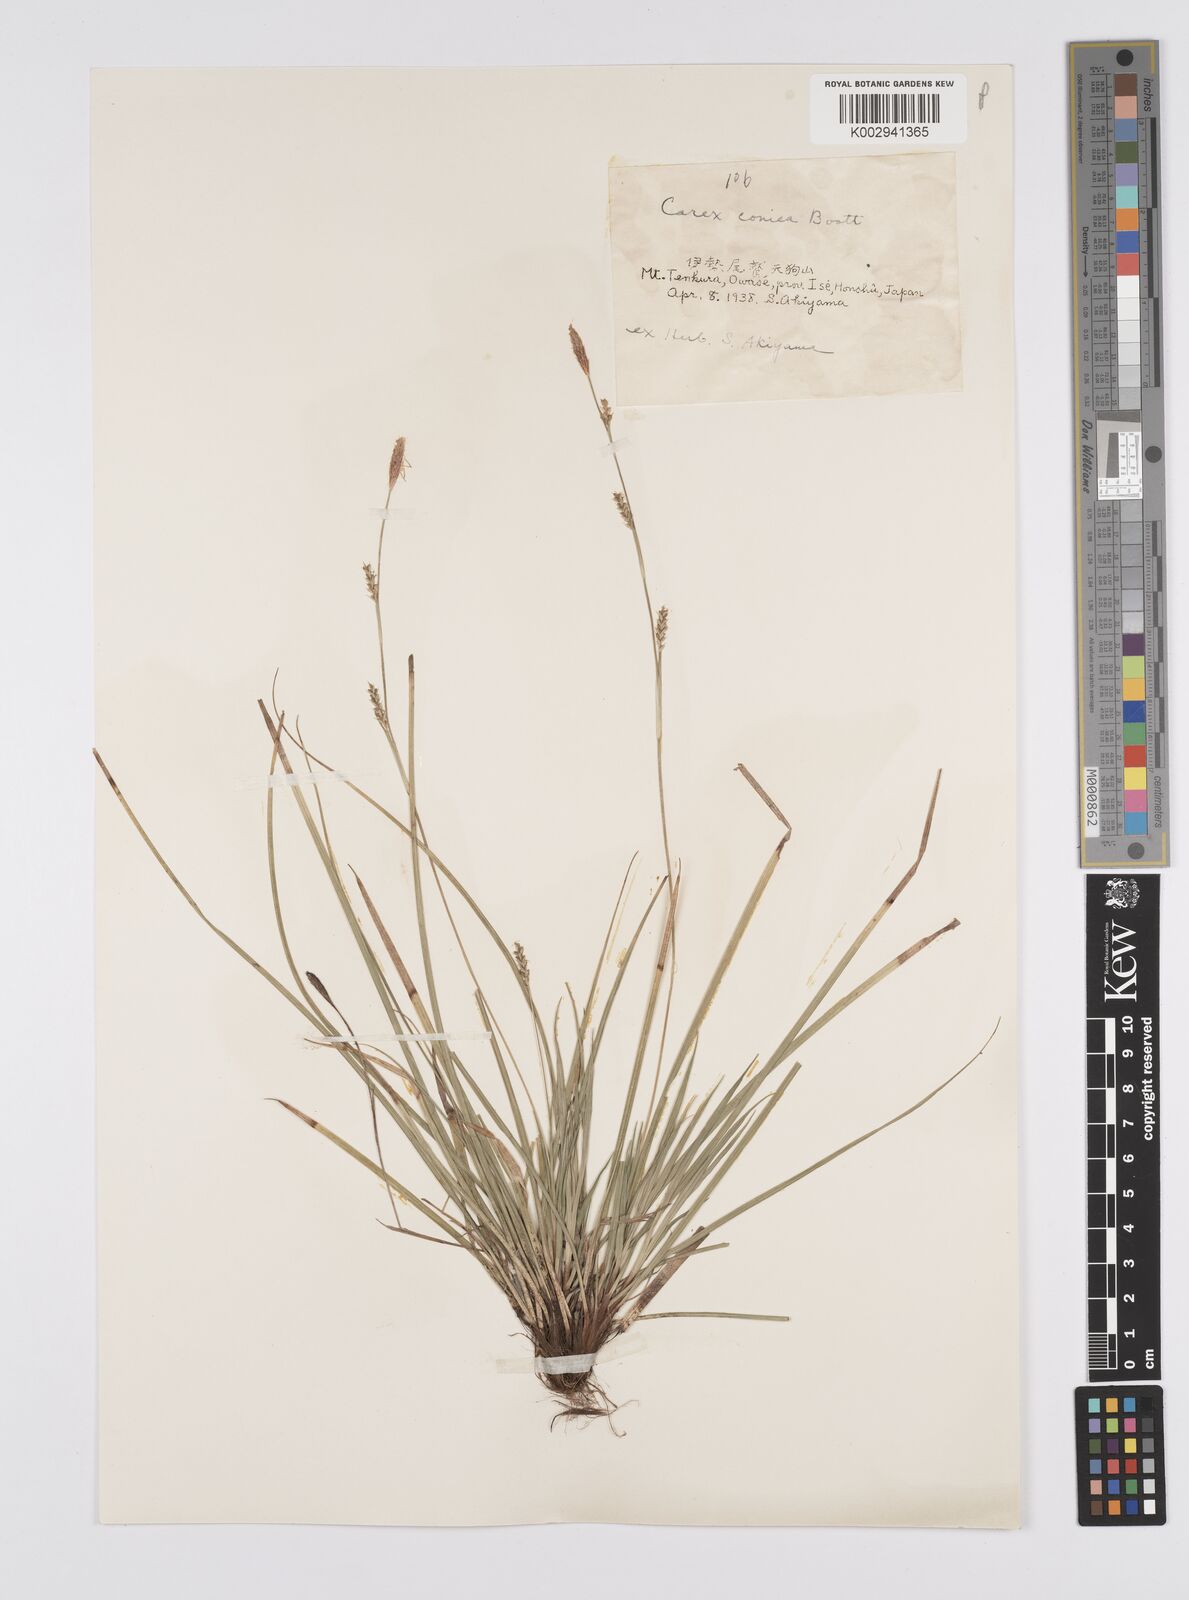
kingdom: Plantae
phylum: Tracheophyta
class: Liliopsida
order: Poales
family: Cyperaceae
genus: Carex
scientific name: Carex conica
